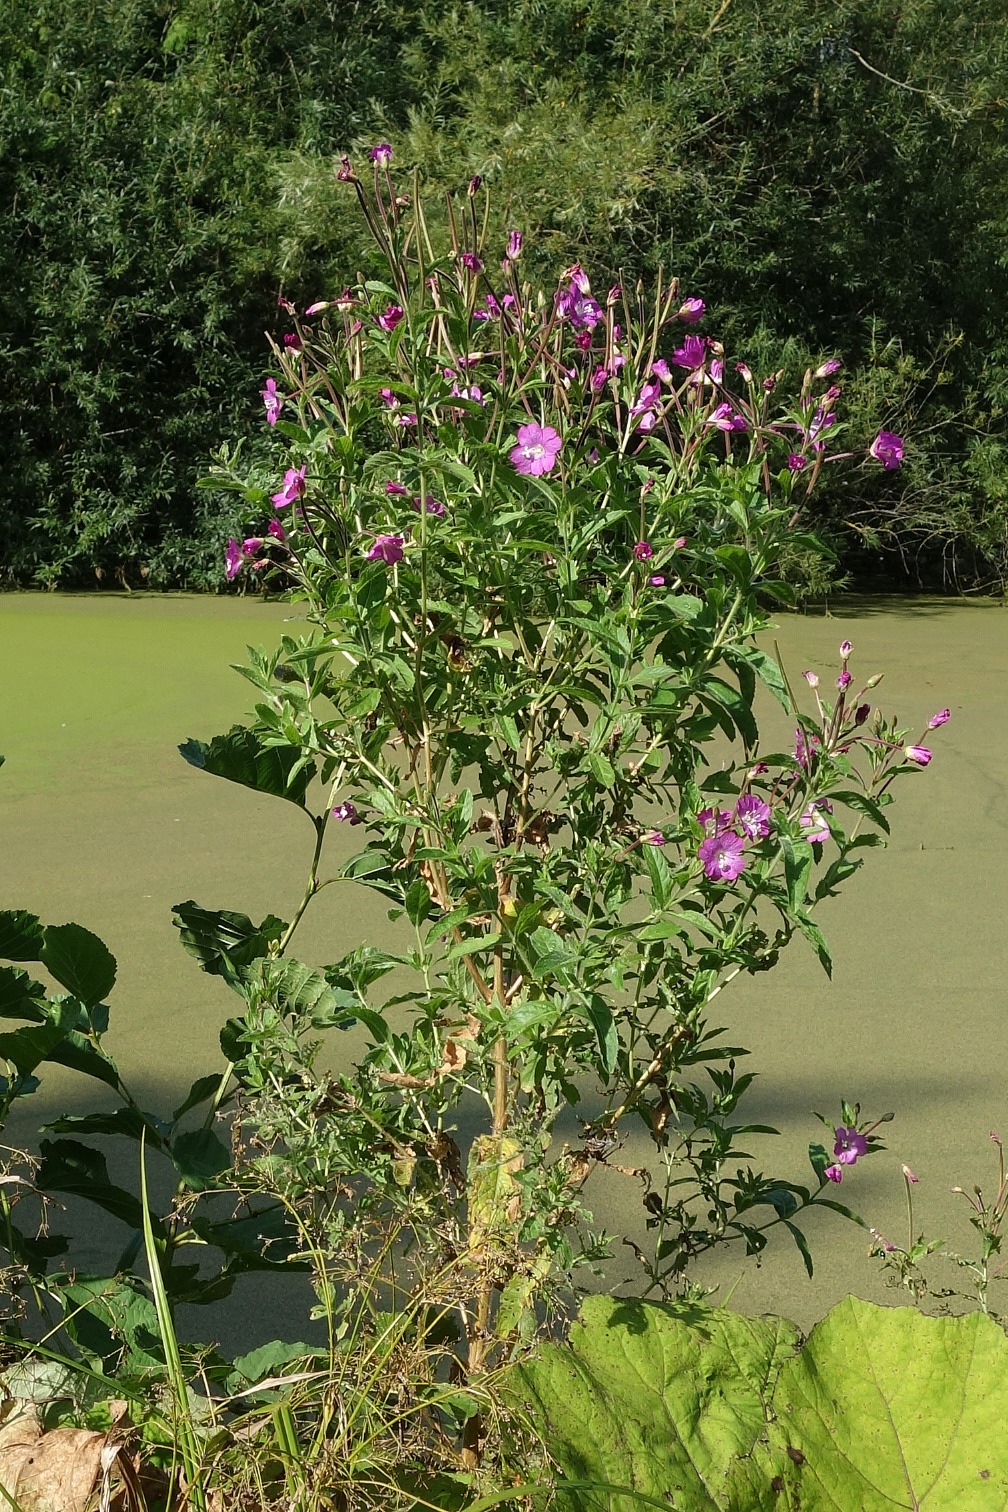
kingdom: Plantae
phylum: Tracheophyta
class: Magnoliopsida
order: Myrtales
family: Onagraceae
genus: Epilobium
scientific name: Epilobium hirsutum
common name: Lådden dueurt
